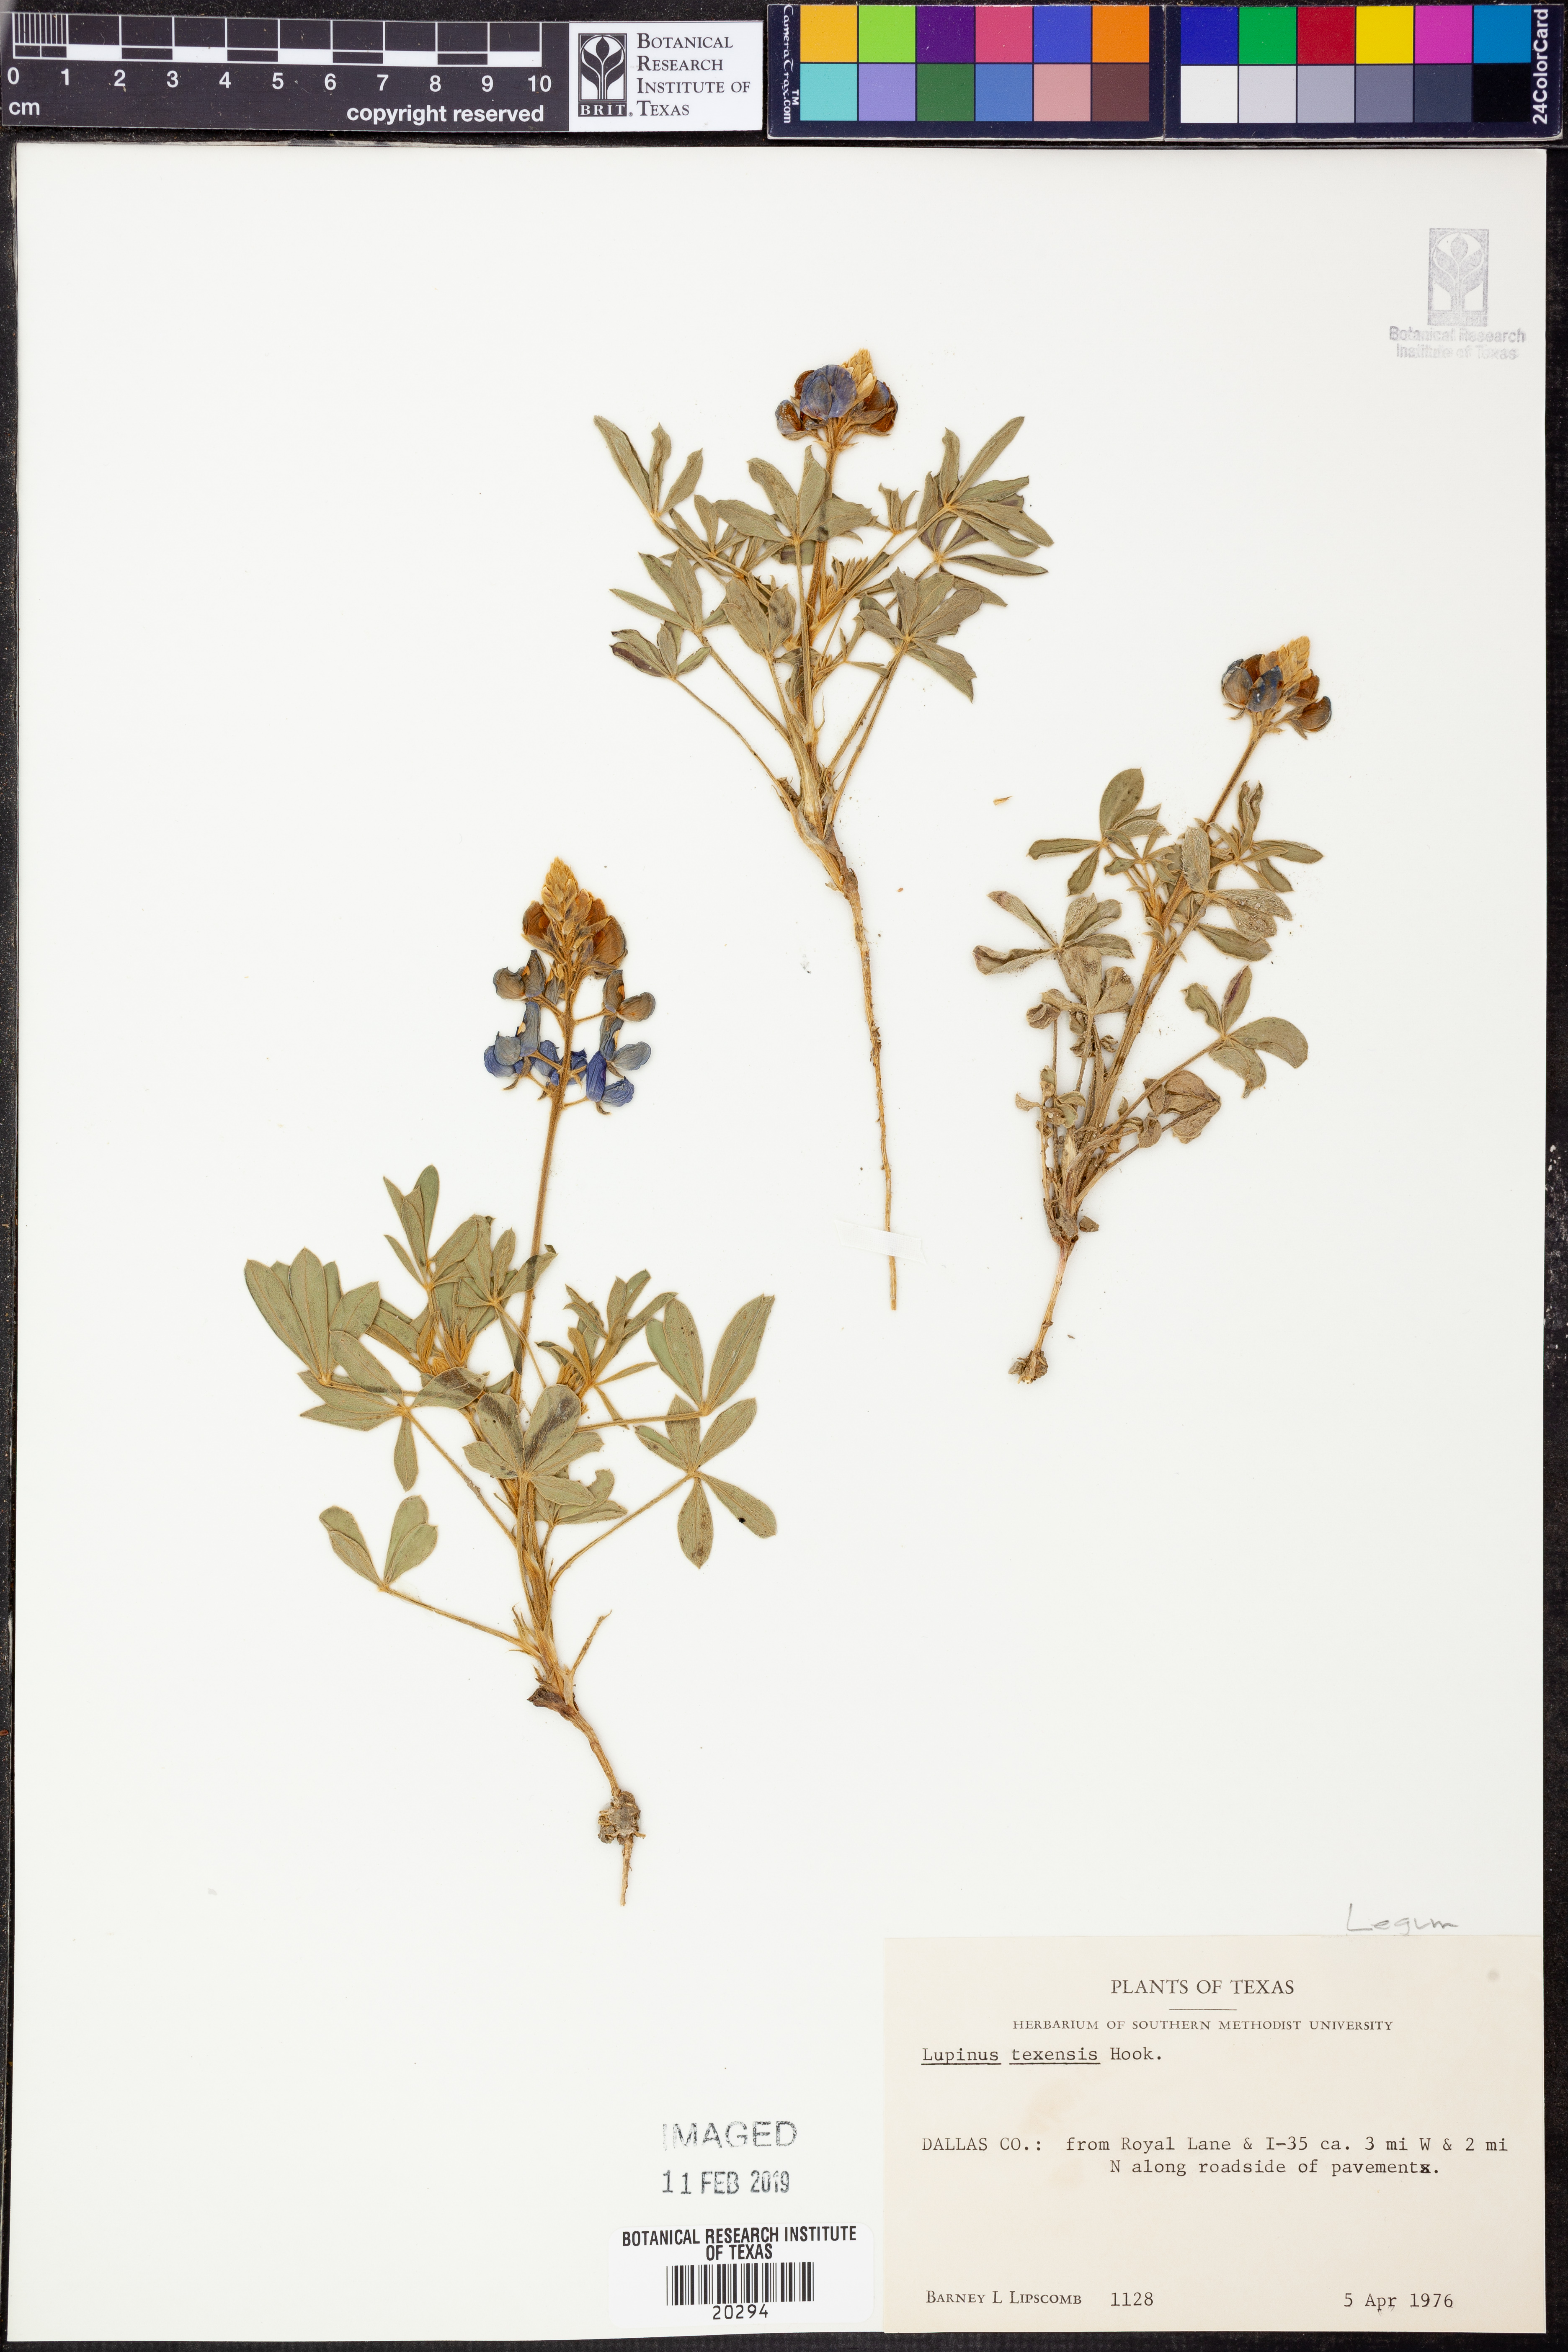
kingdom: Plantae
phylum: Tracheophyta
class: Magnoliopsida
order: Fabales
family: Fabaceae
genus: Lupinus
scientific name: Lupinus texensis
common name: Texas bluebonnet
